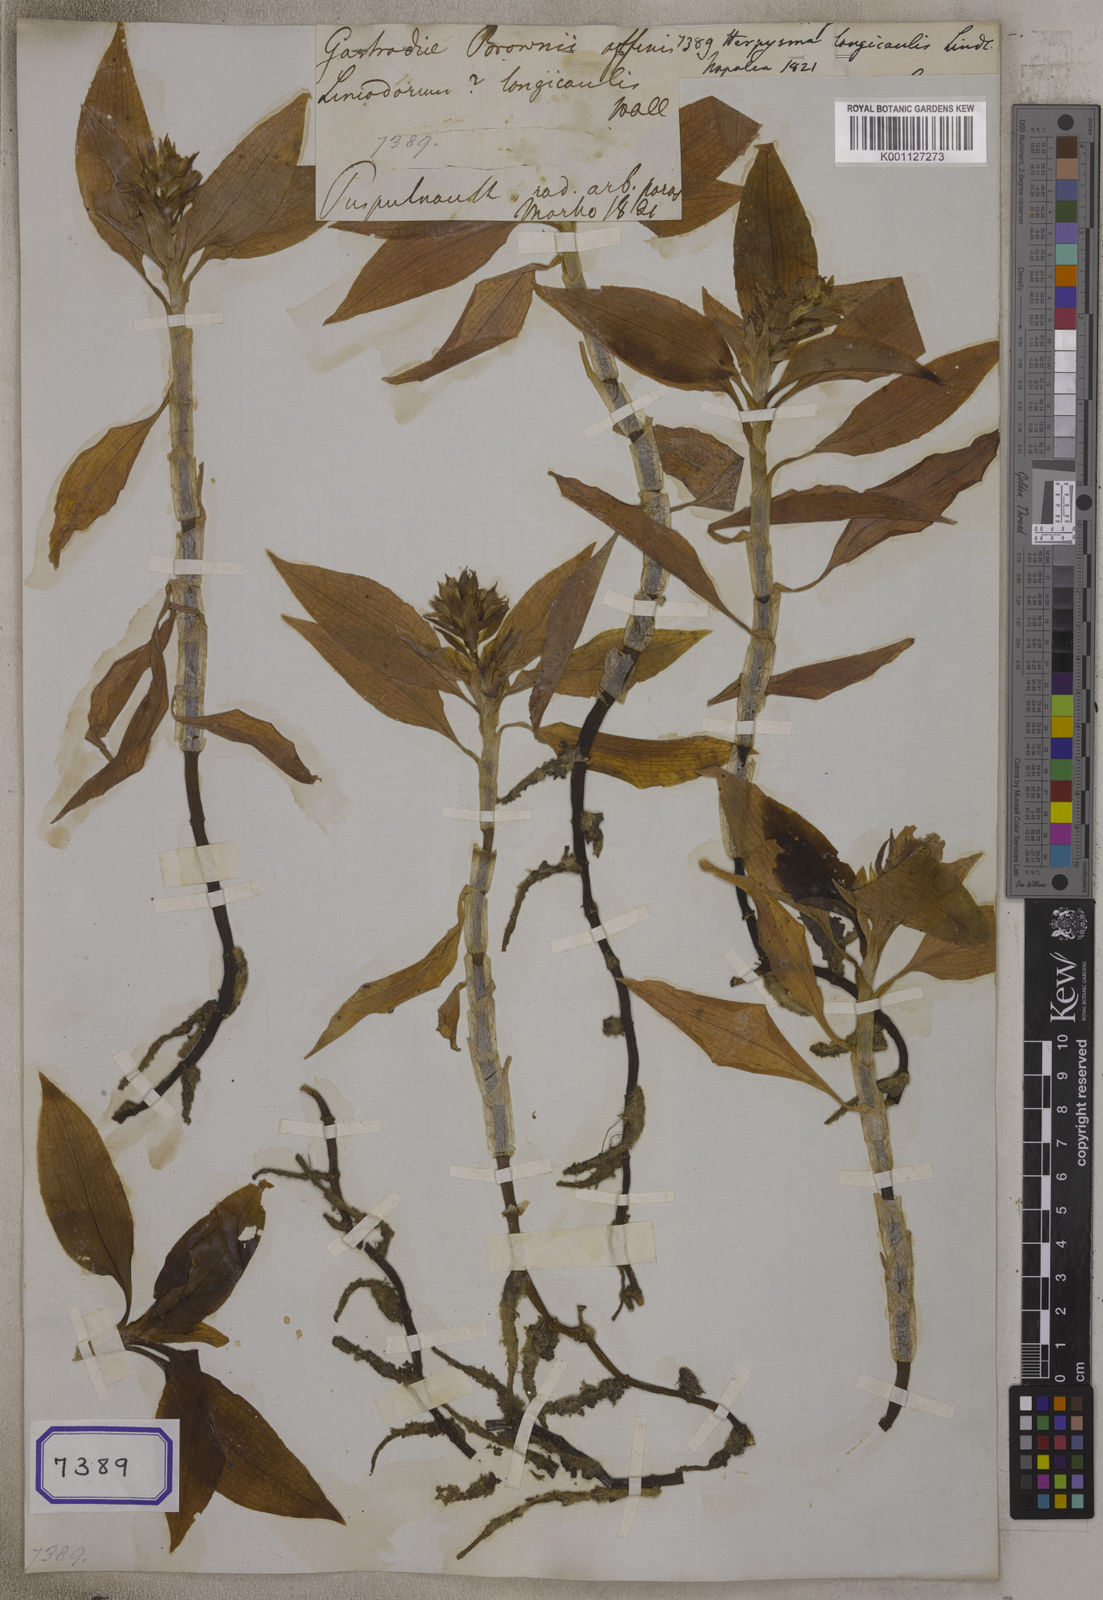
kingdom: Plantae
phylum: Tracheophyta
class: Liliopsida
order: Asparagales
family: Orchidaceae
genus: Herpysma
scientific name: Herpysma longicaulis
